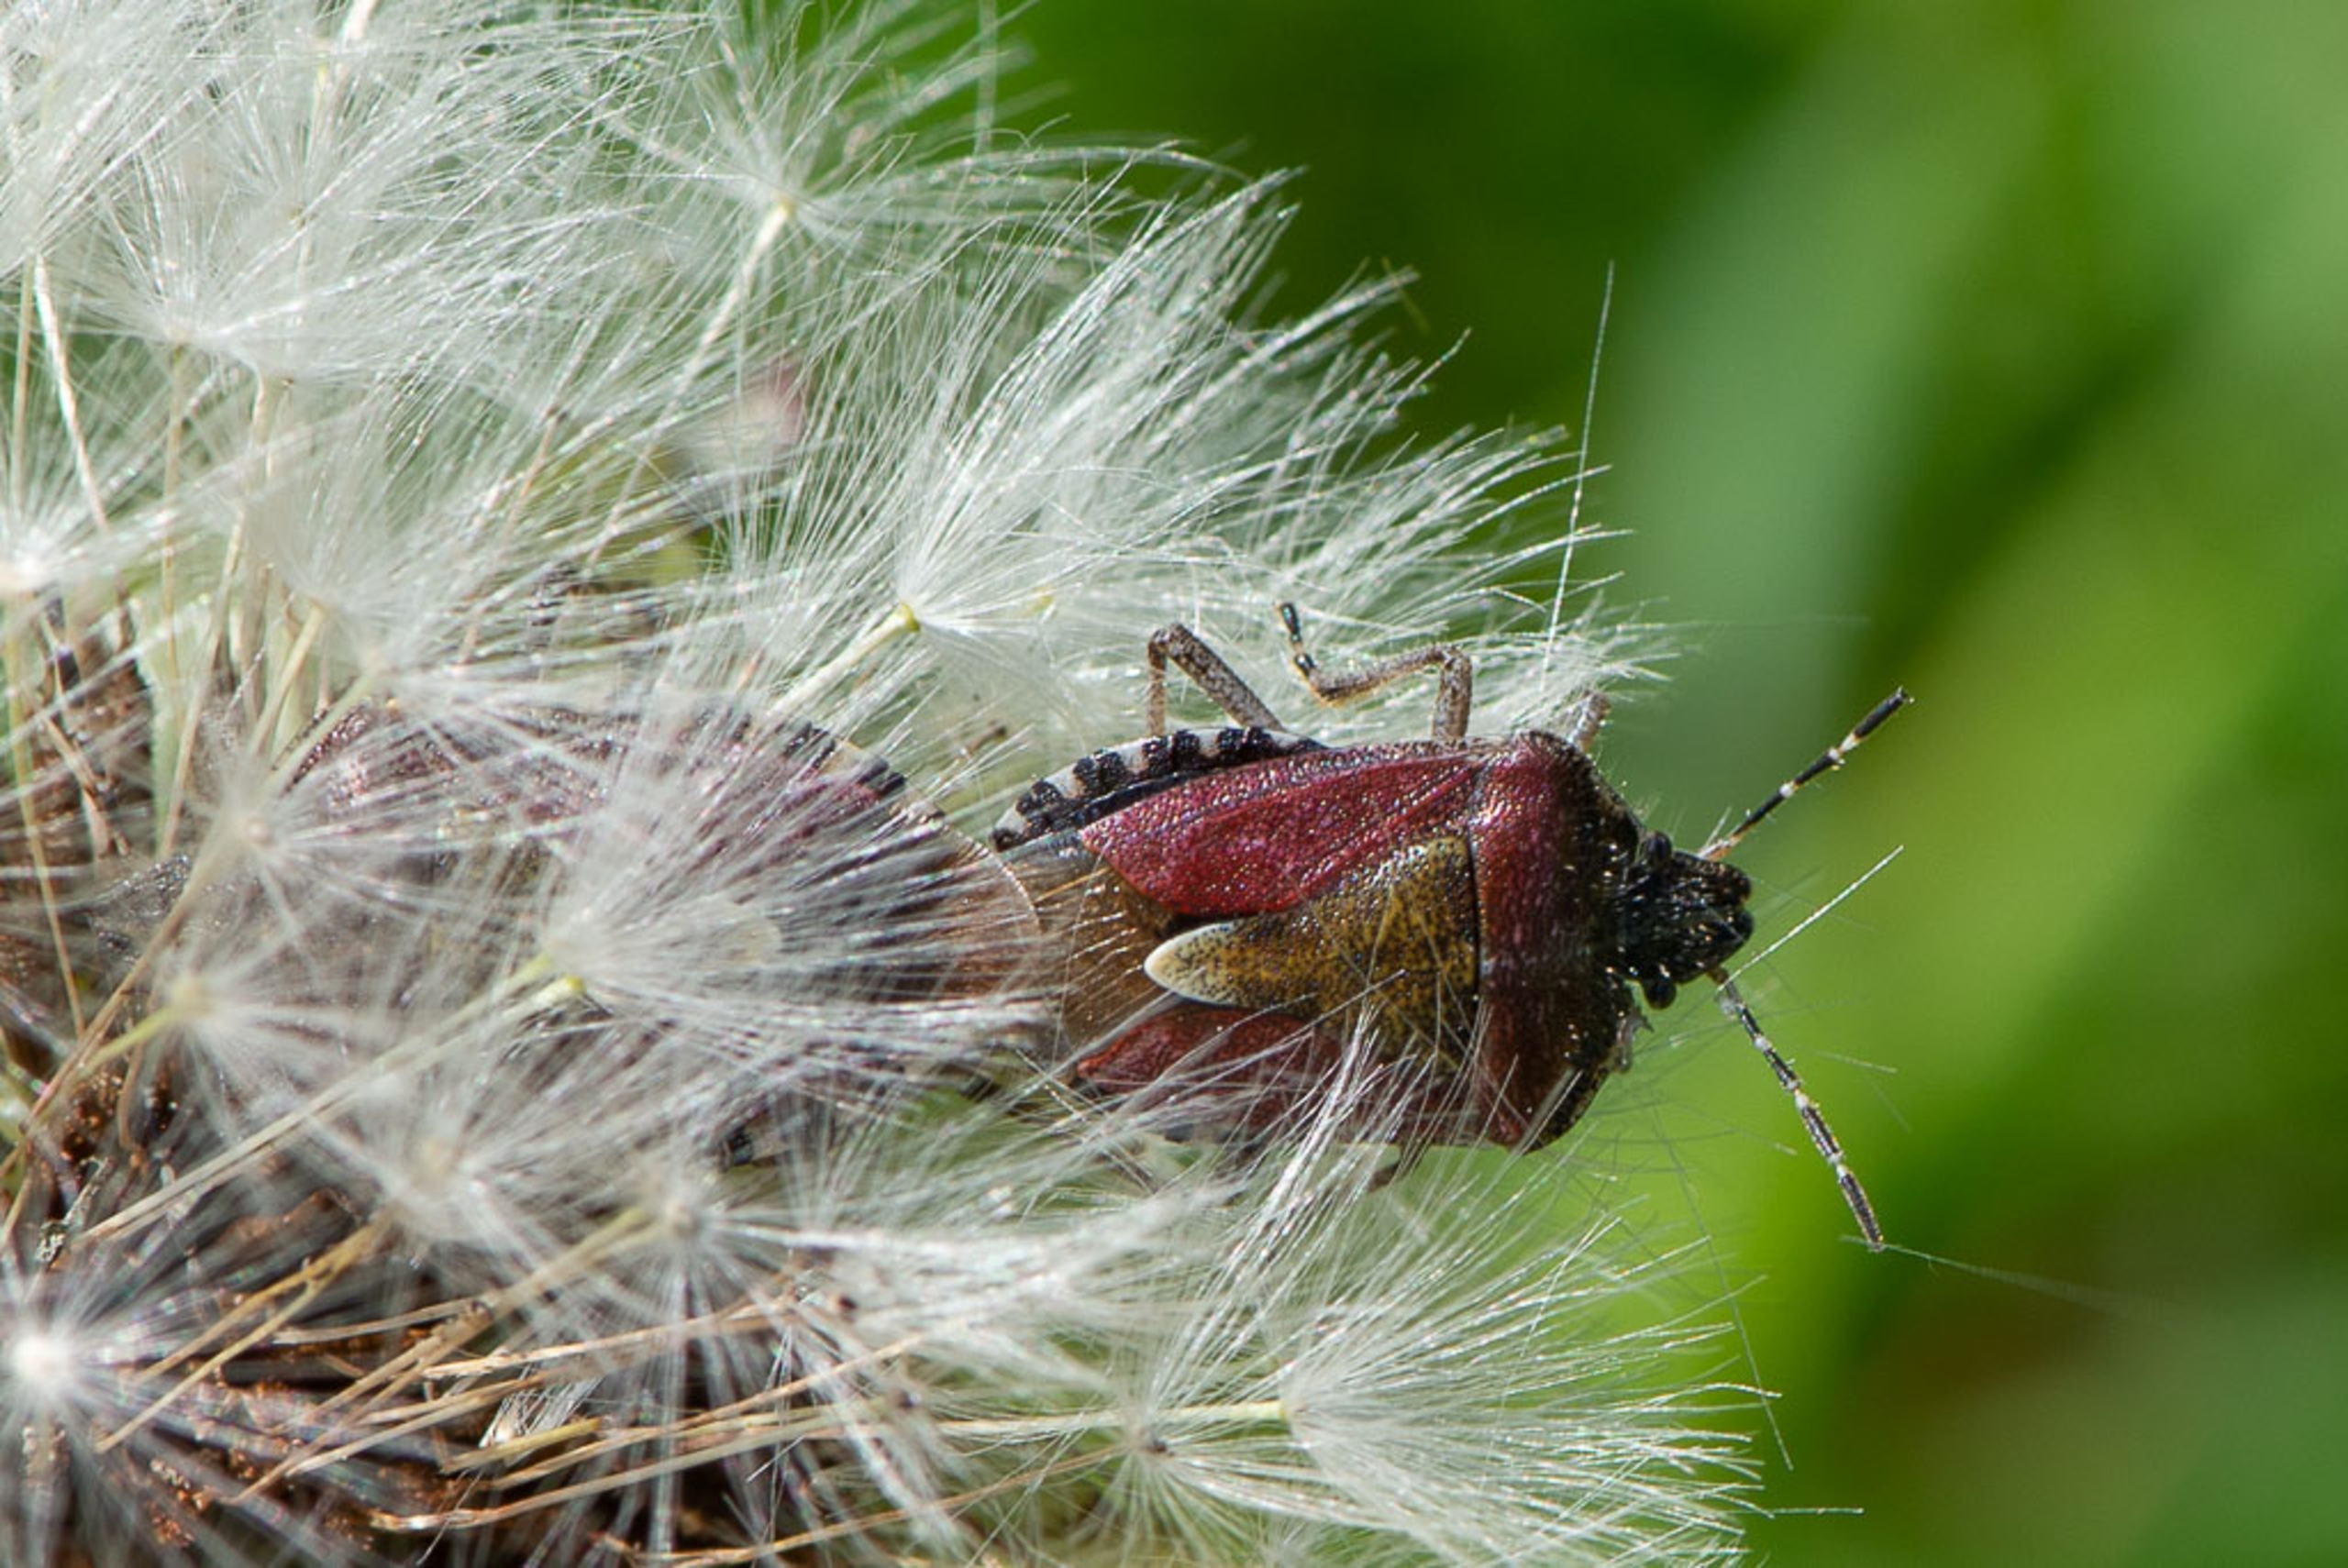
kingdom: Animalia
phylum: Arthropoda
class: Insecta
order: Hemiptera
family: Pentatomidae
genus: Dolycoris
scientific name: Dolycoris baccarum
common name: Almindelig bærtæge
